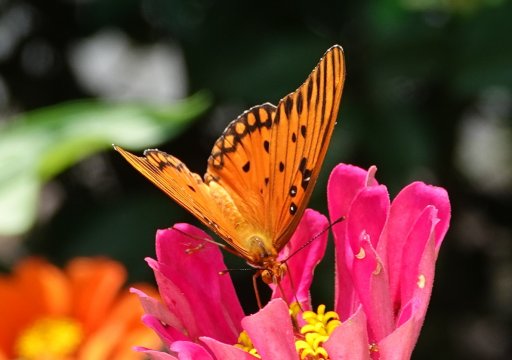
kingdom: Animalia
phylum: Arthropoda
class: Insecta
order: Lepidoptera
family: Nymphalidae
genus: Dione
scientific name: Dione vanillae
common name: Gulf Fritillary
